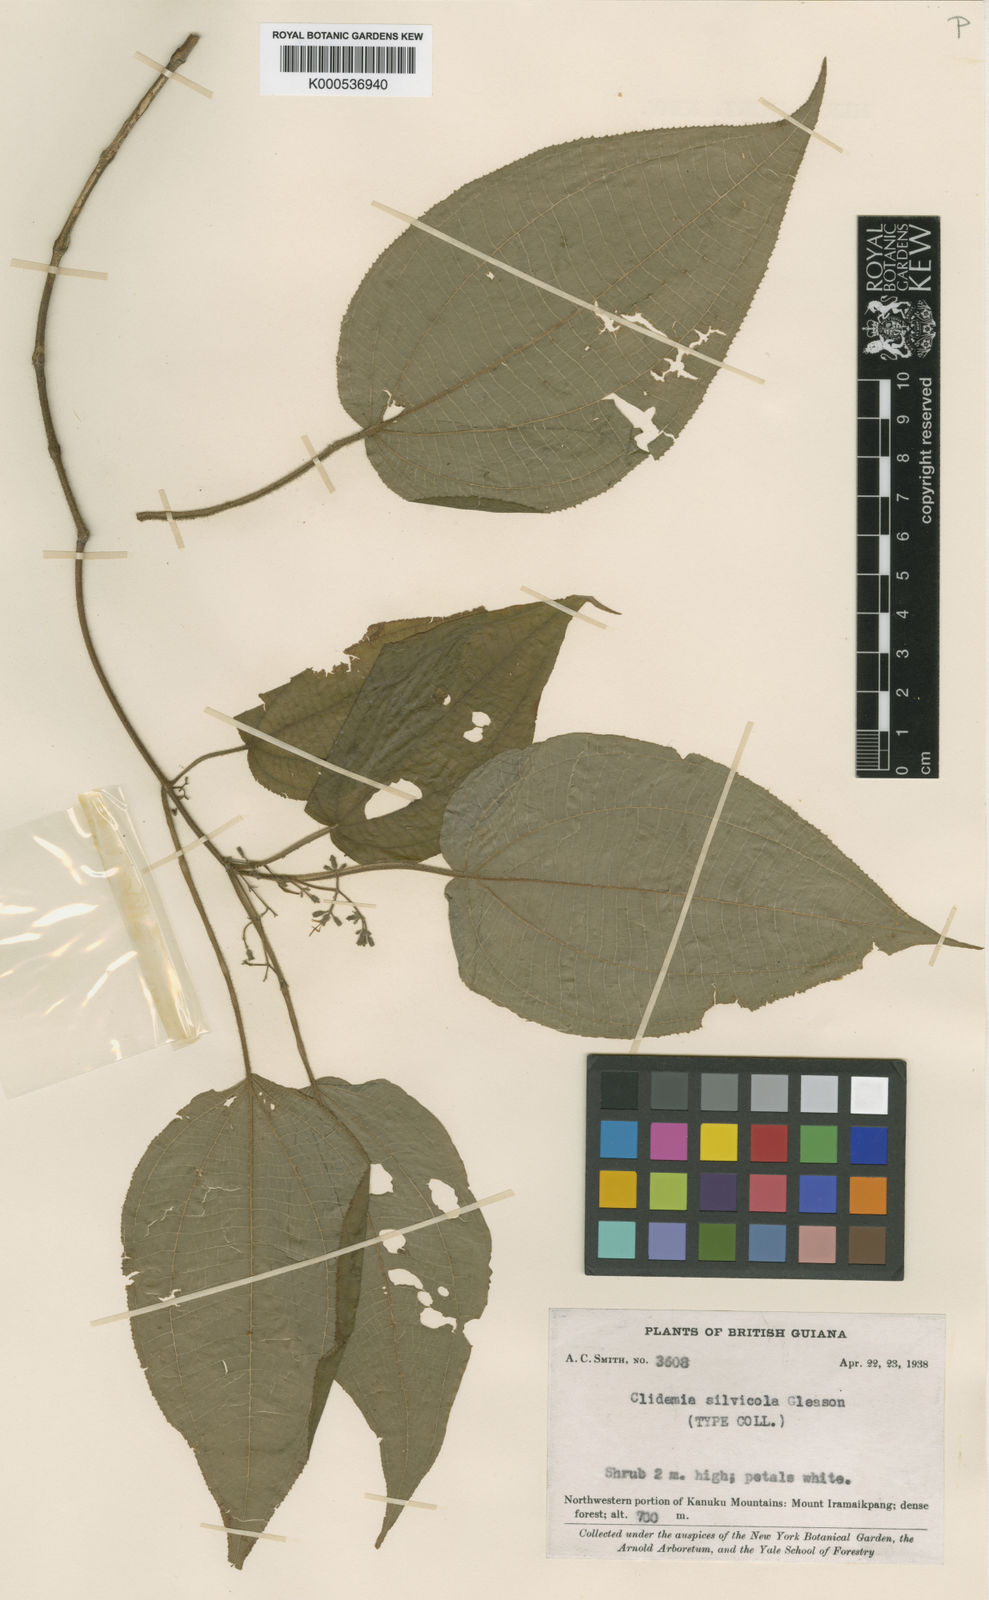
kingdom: Plantae
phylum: Tracheophyta
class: Magnoliopsida
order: Myrtales
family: Melastomataceae
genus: Miconia
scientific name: Miconia silvicola
